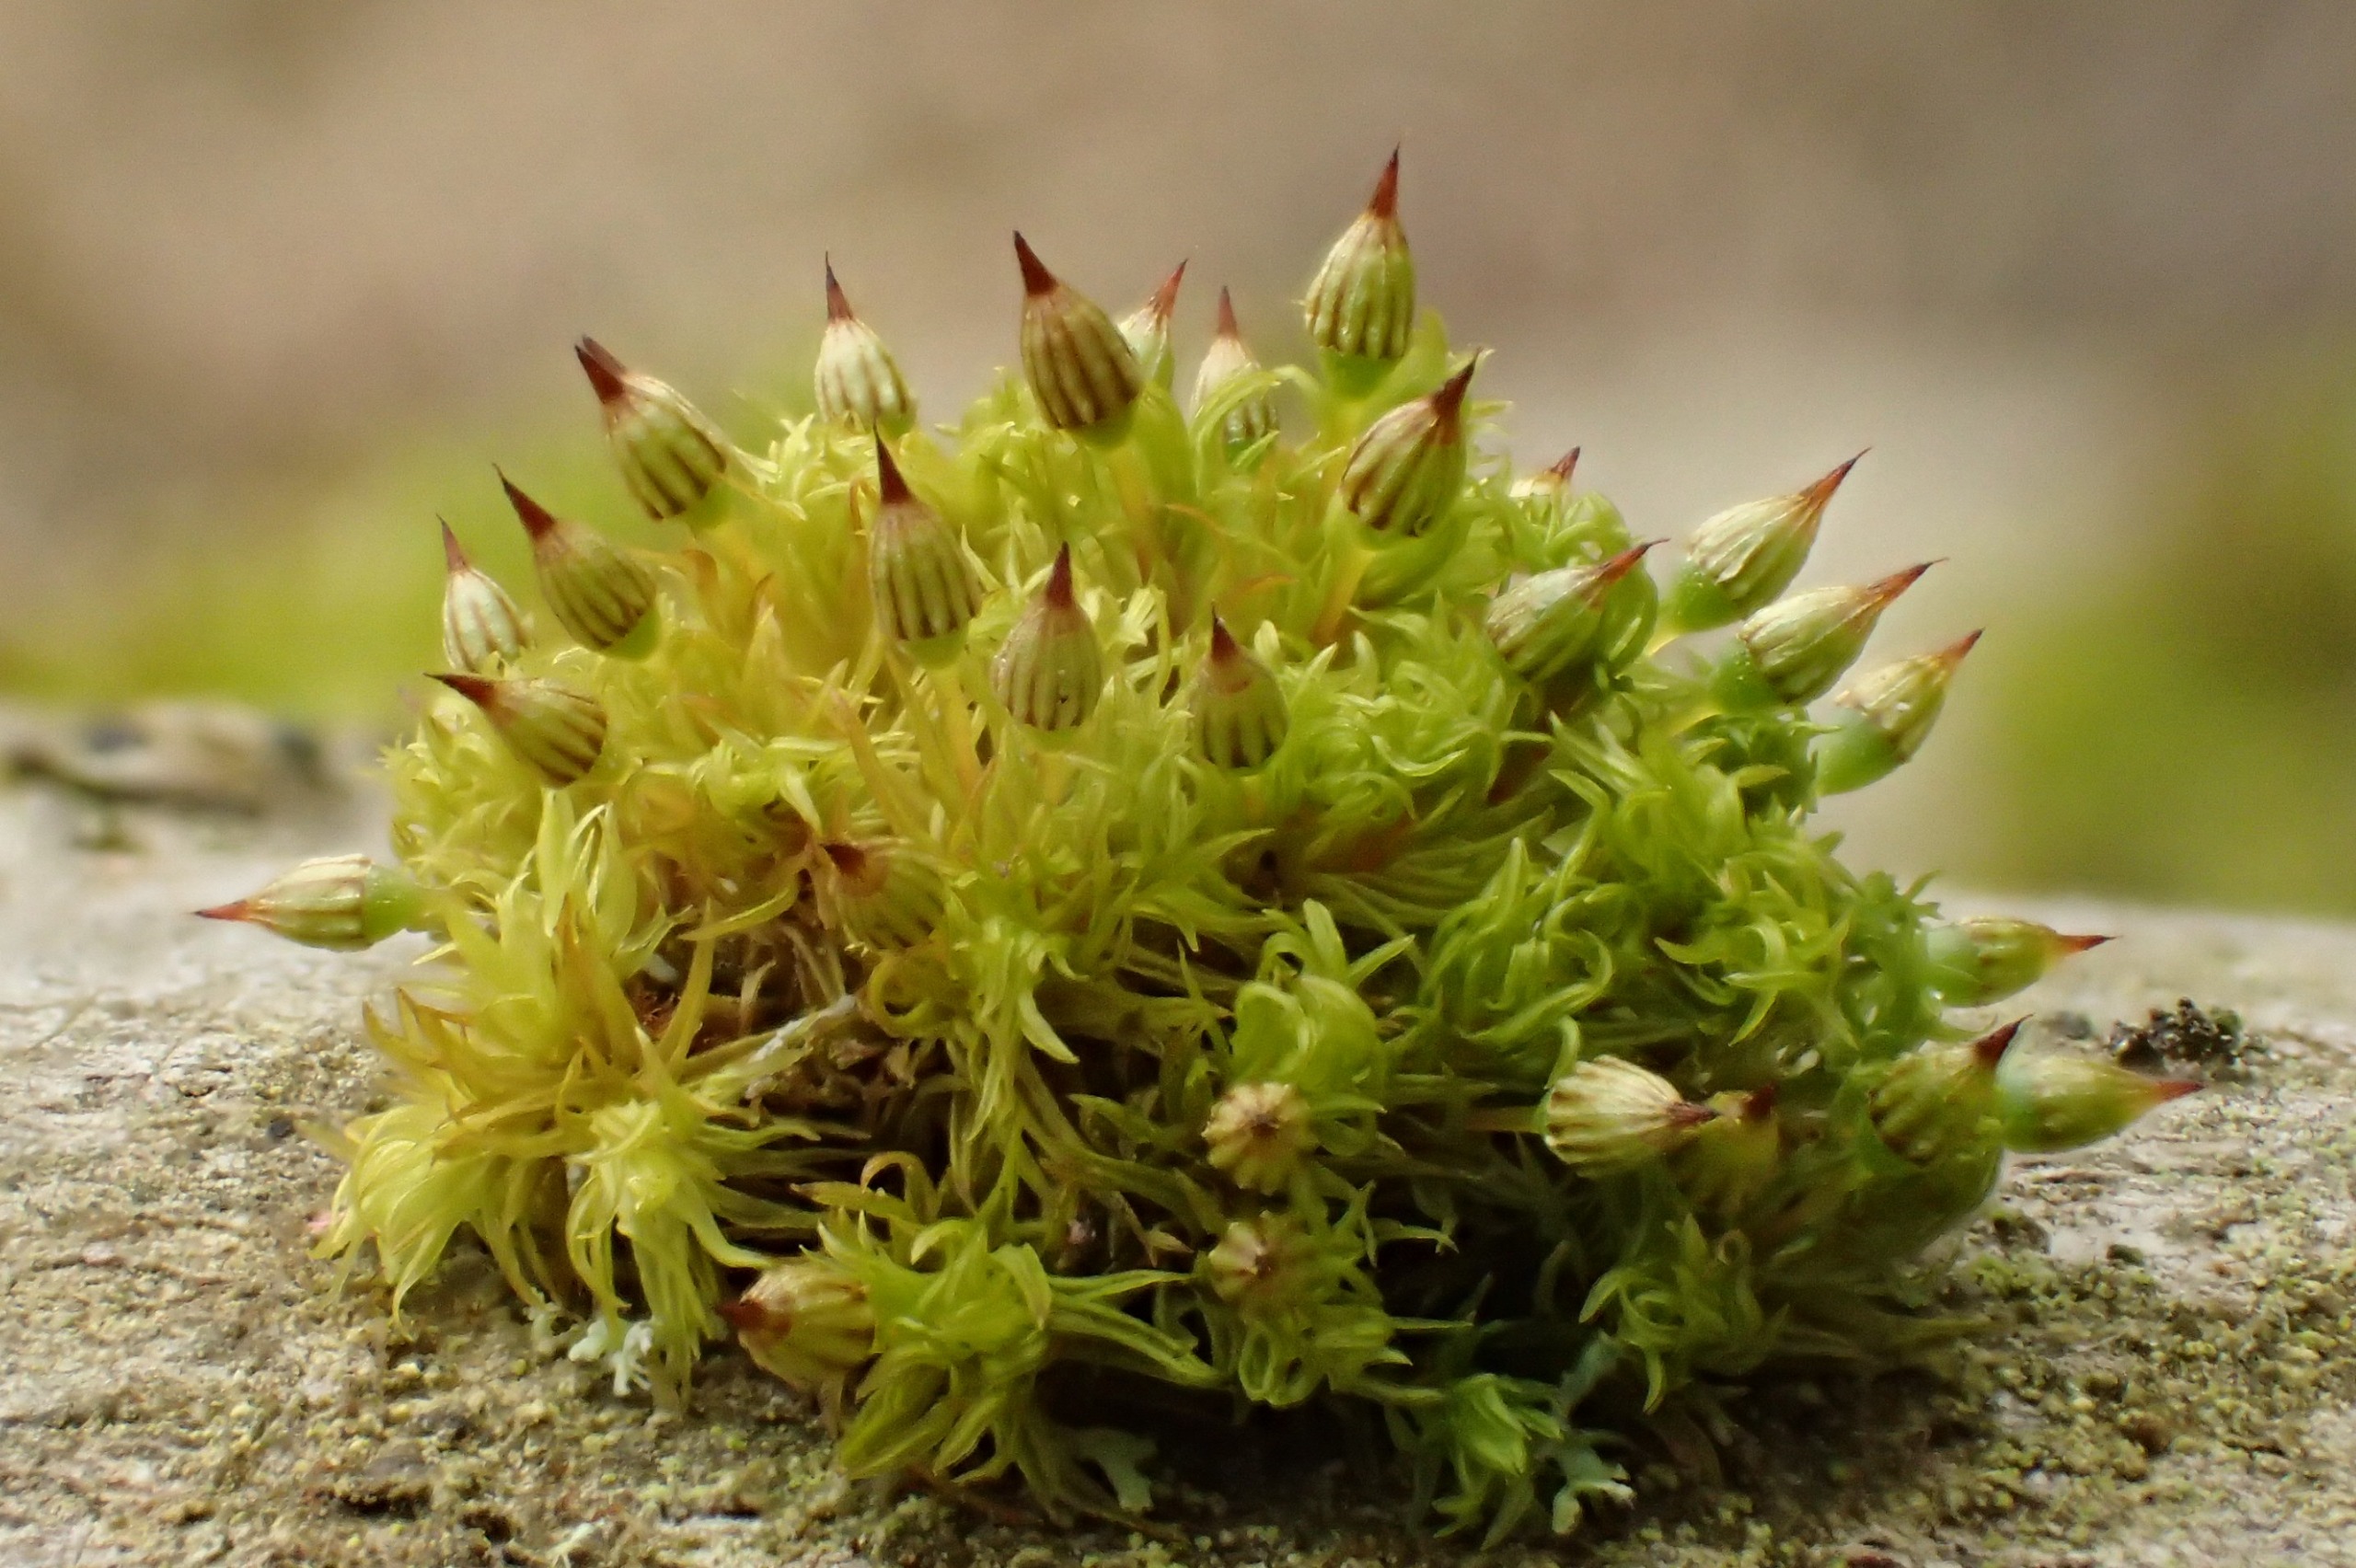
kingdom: Plantae
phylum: Bryophyta
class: Bryopsida
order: Orthotrichales
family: Orthotrichaceae
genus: Orthotrichum
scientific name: Orthotrichum pulchellum
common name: Smuk furehætte
